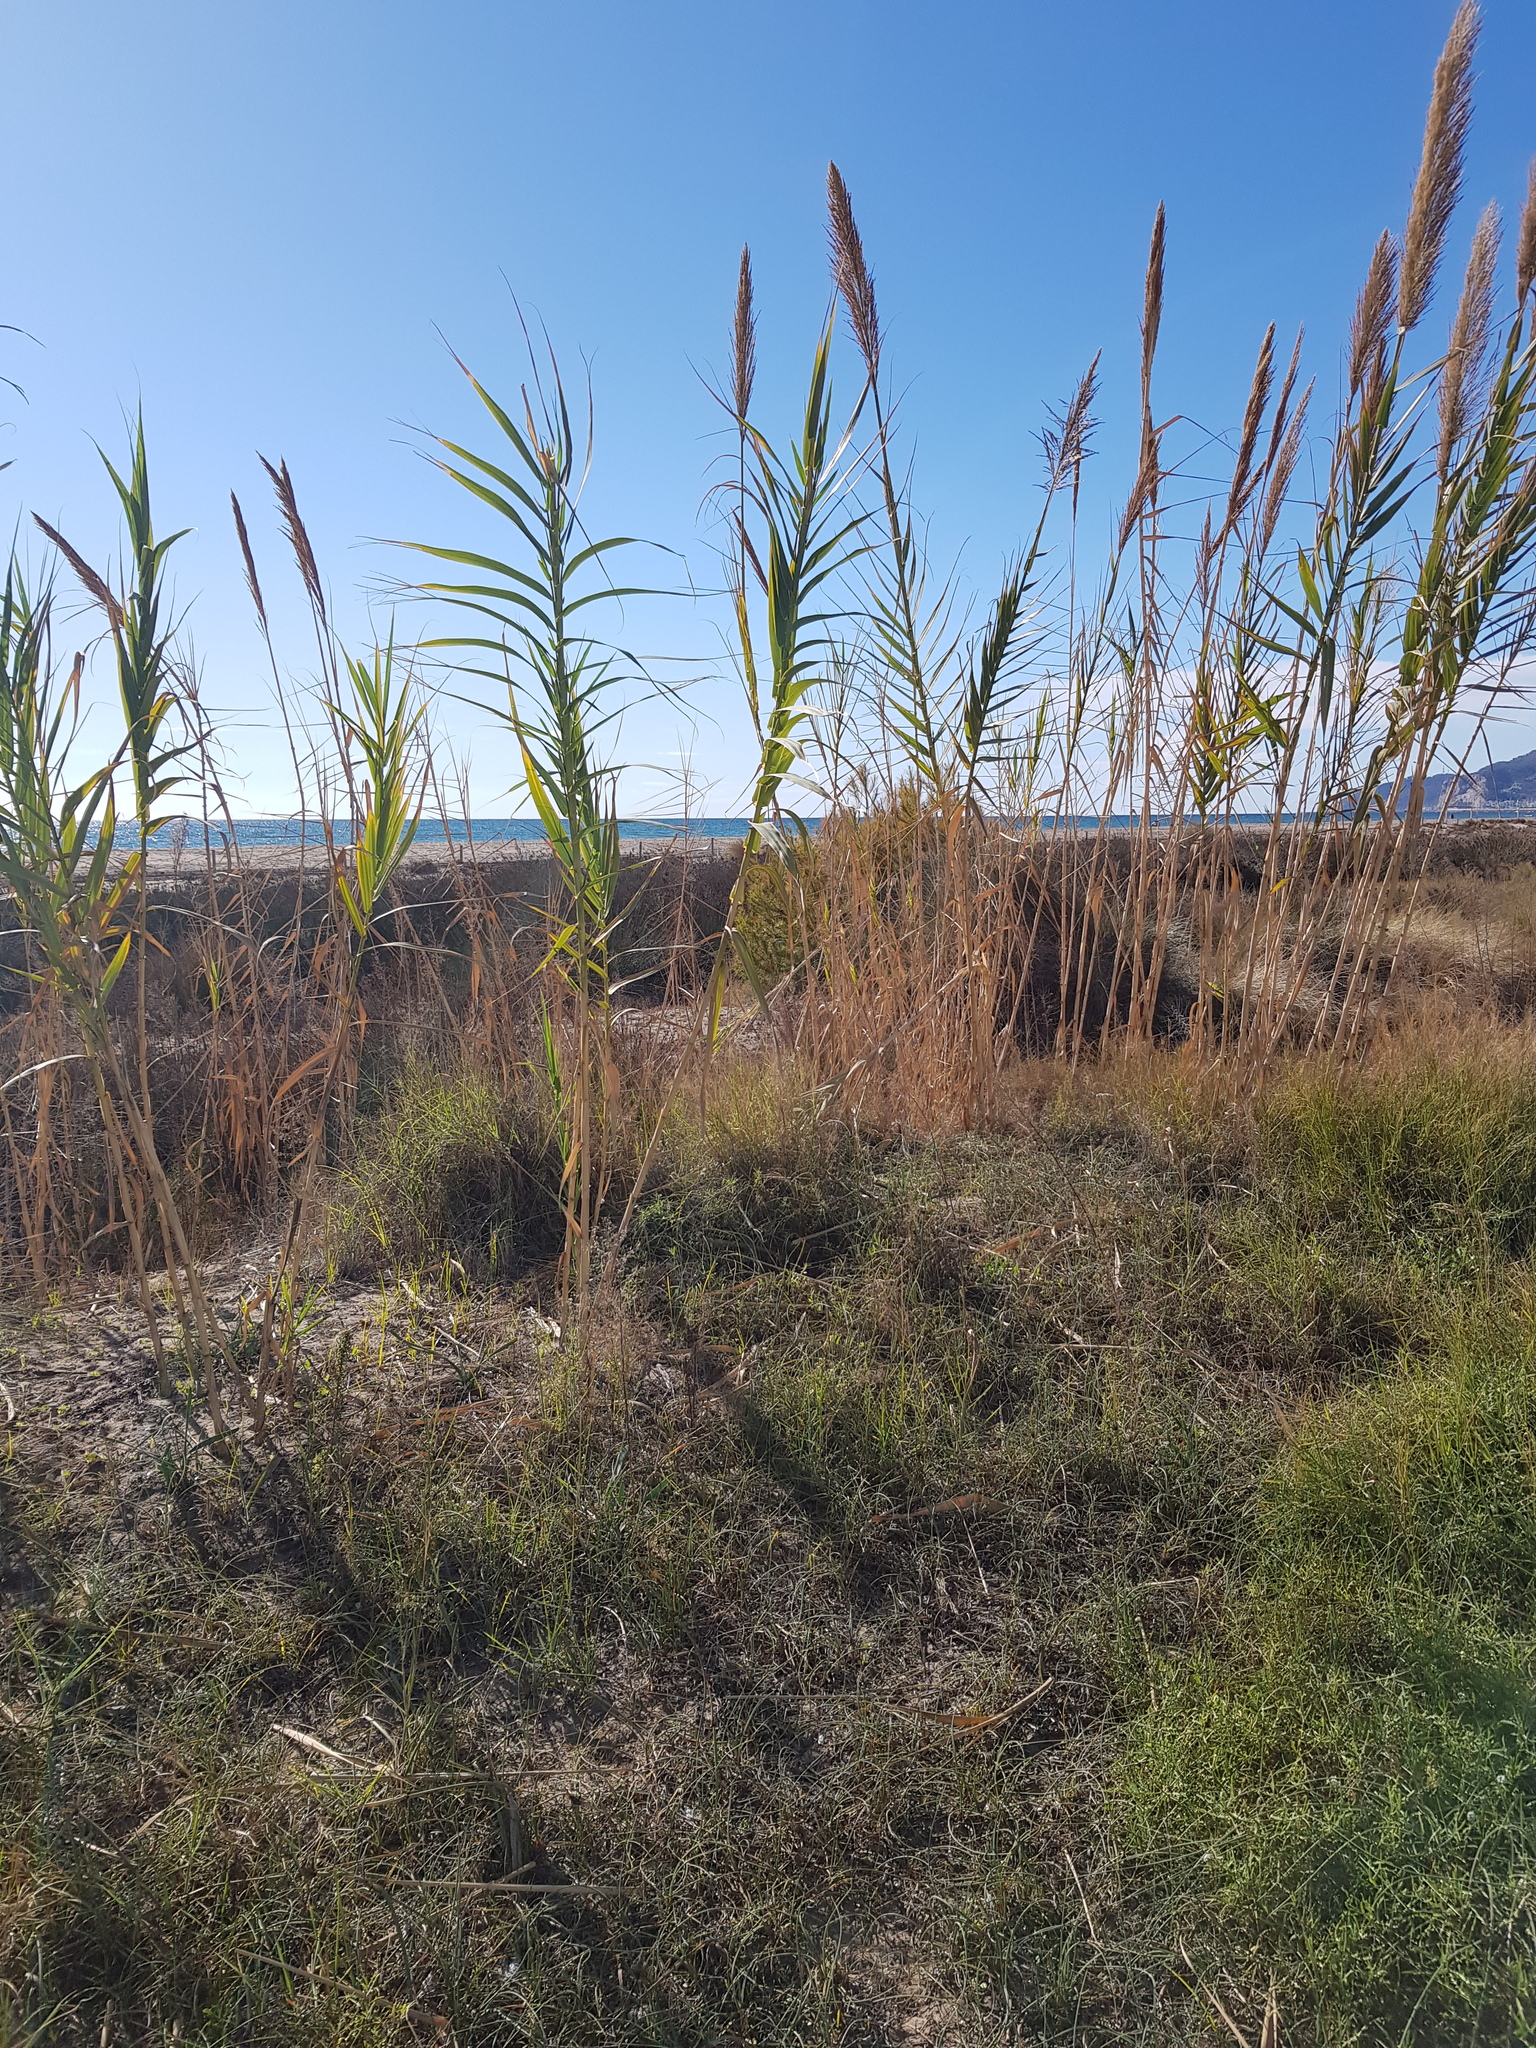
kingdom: Plantae
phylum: Tracheophyta
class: Liliopsida
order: Poales
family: Poaceae
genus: Arundo
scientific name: Arundo donax
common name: Giant reed
